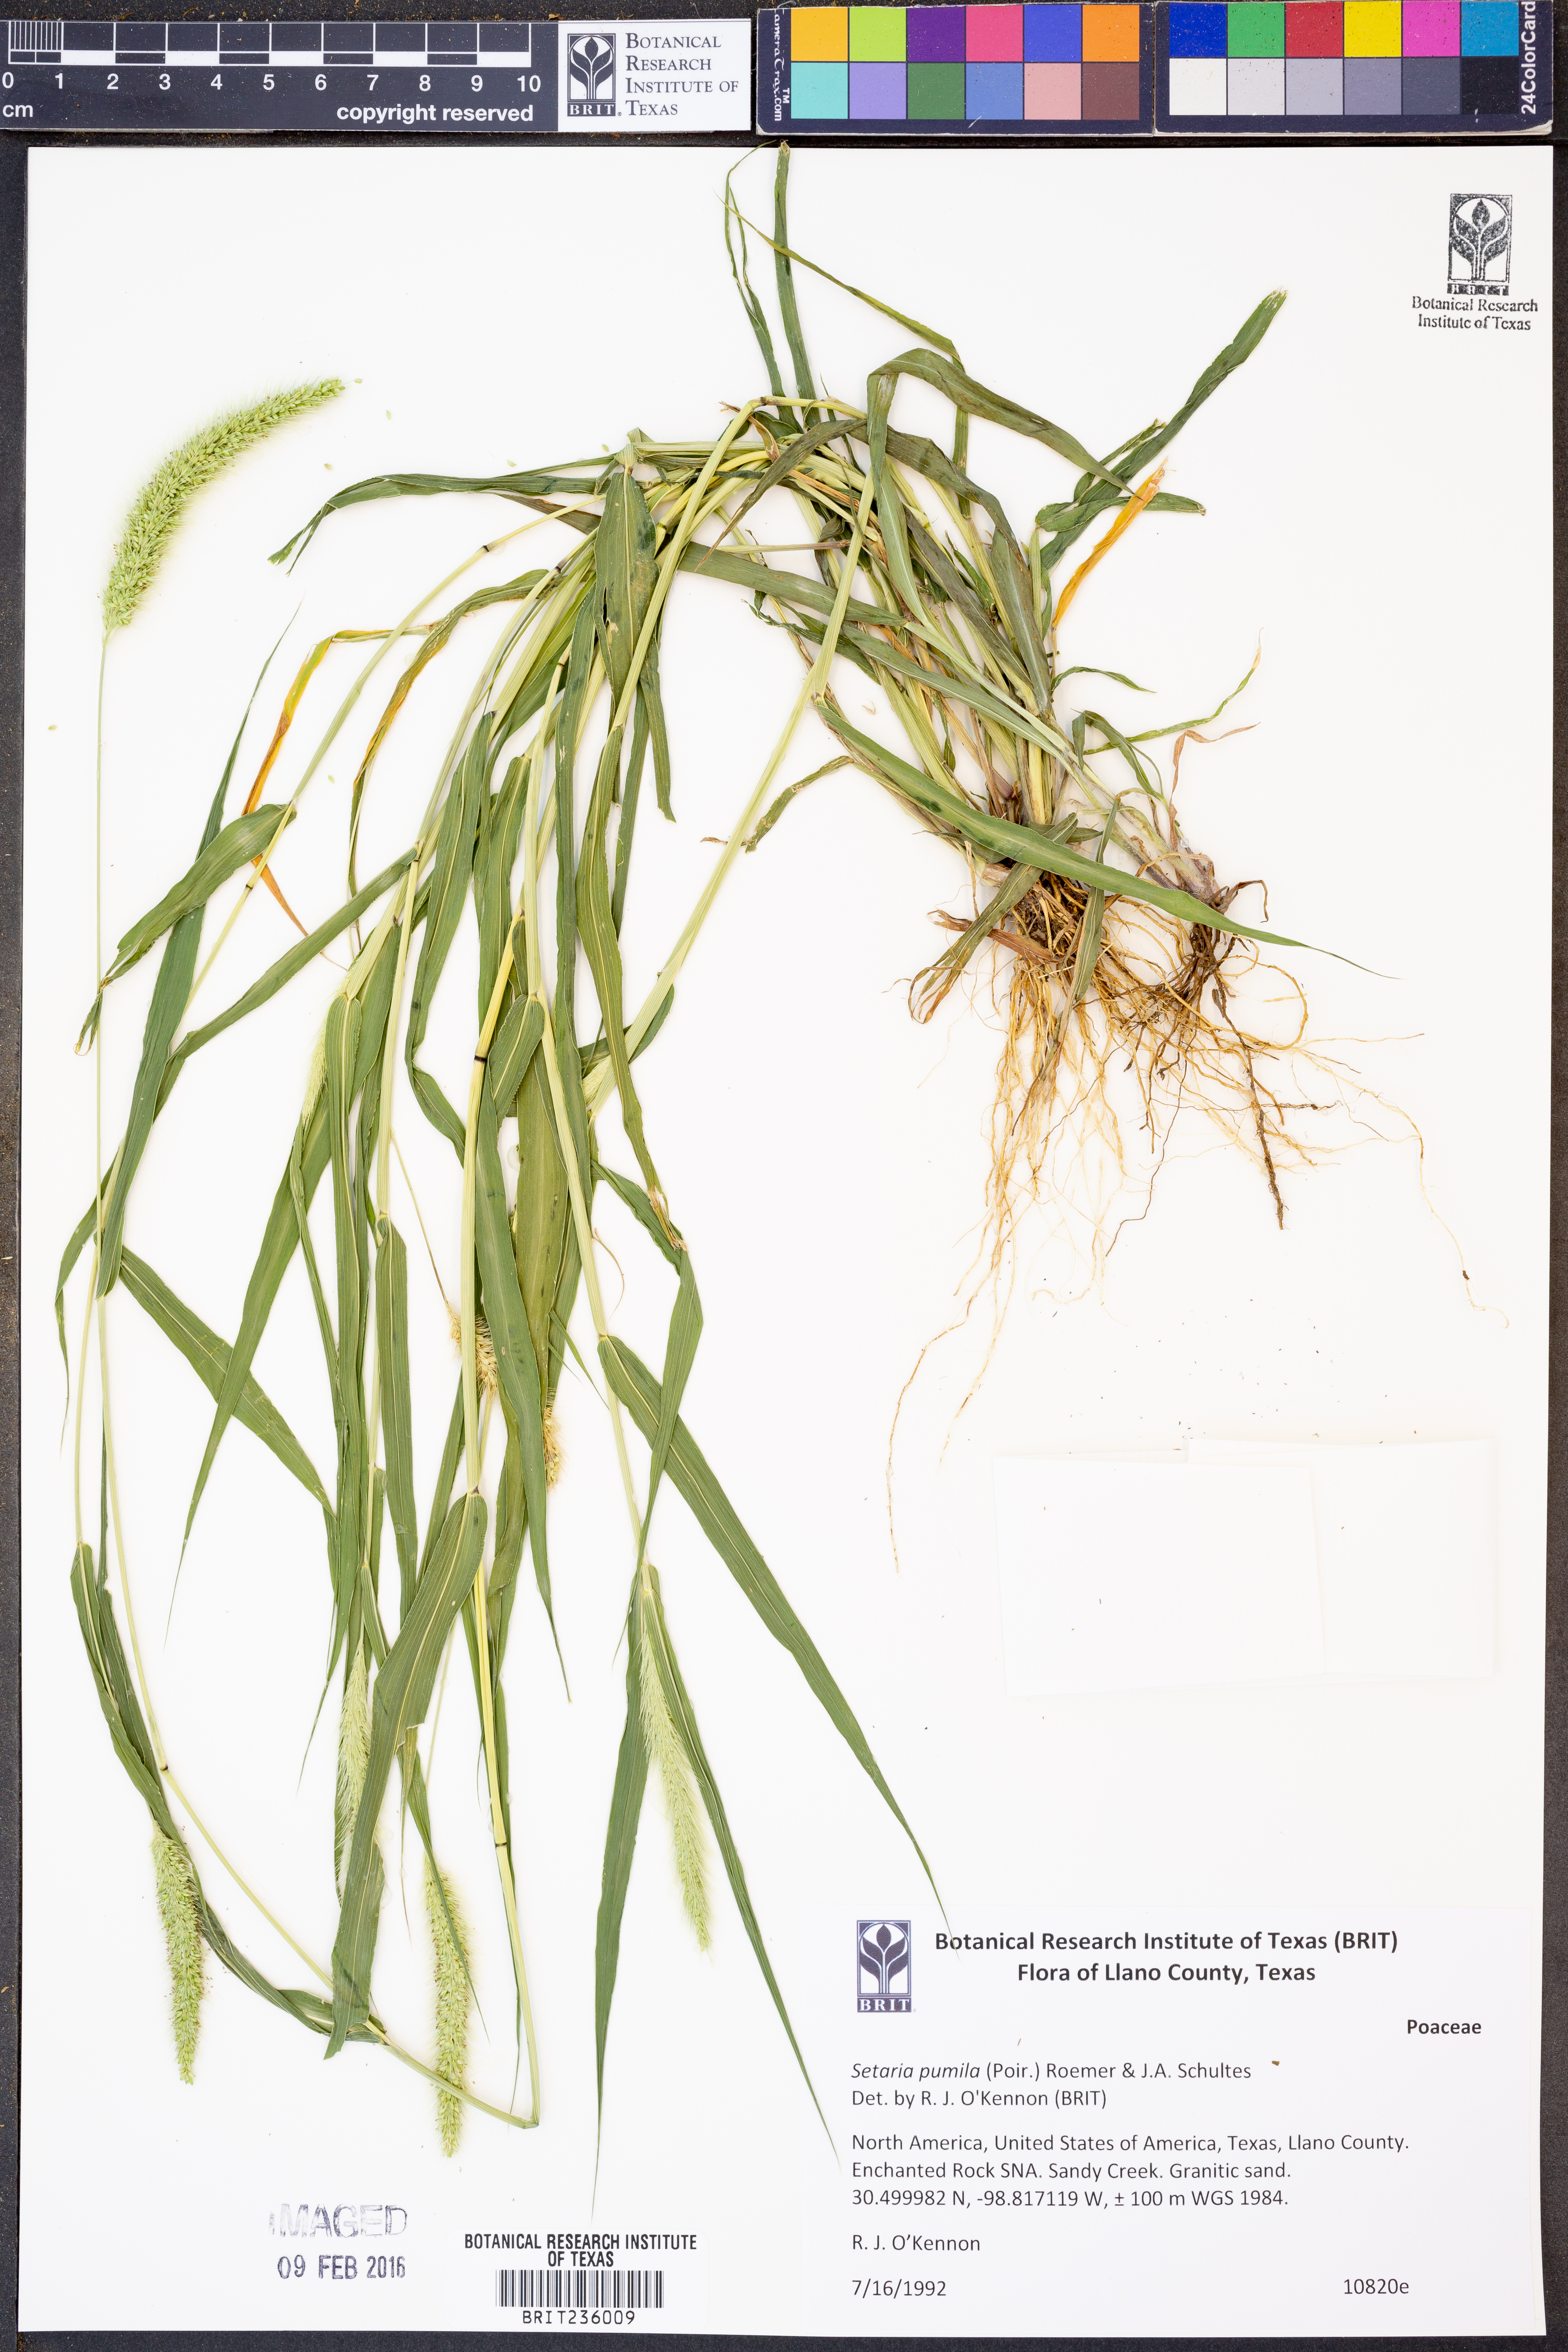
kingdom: Plantae
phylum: Tracheophyta
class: Liliopsida
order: Poales
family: Poaceae
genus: Setaria
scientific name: Setaria pumila
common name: Yellow bristle-grass
